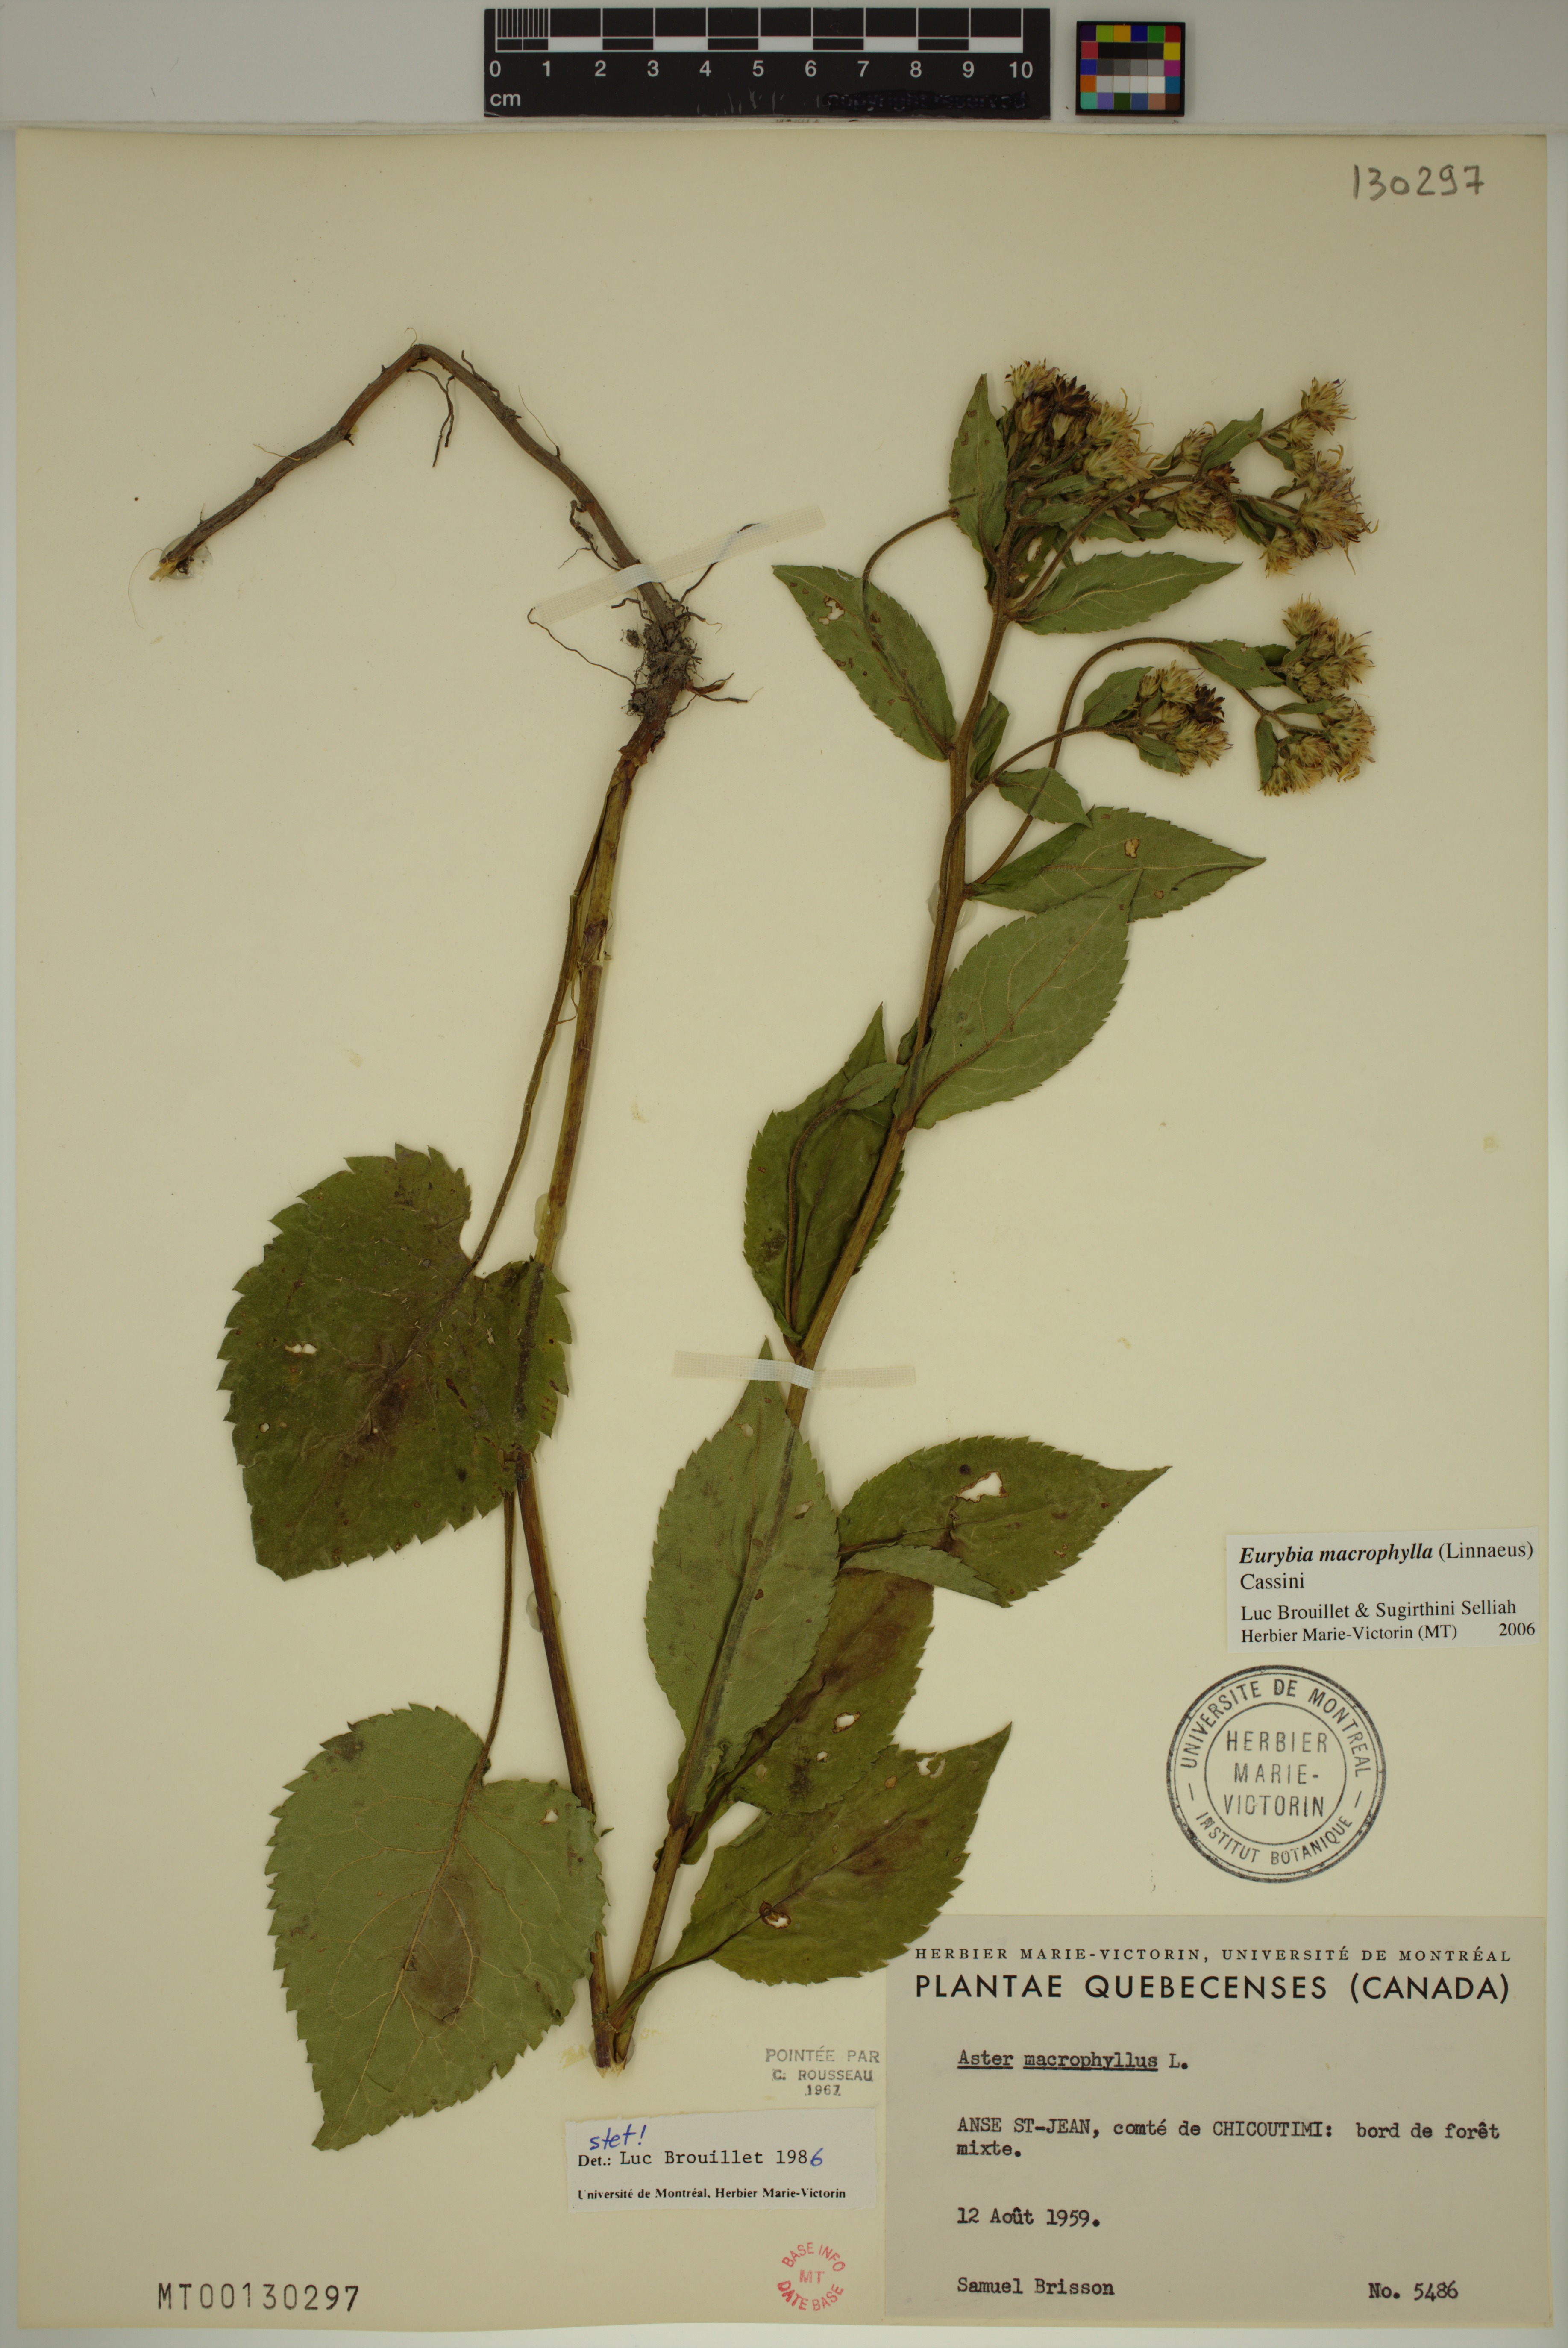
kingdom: Plantae
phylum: Tracheophyta
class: Magnoliopsida
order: Asterales
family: Asteraceae
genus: Eurybia
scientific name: Eurybia macrophylla
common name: Big-leaved aster
